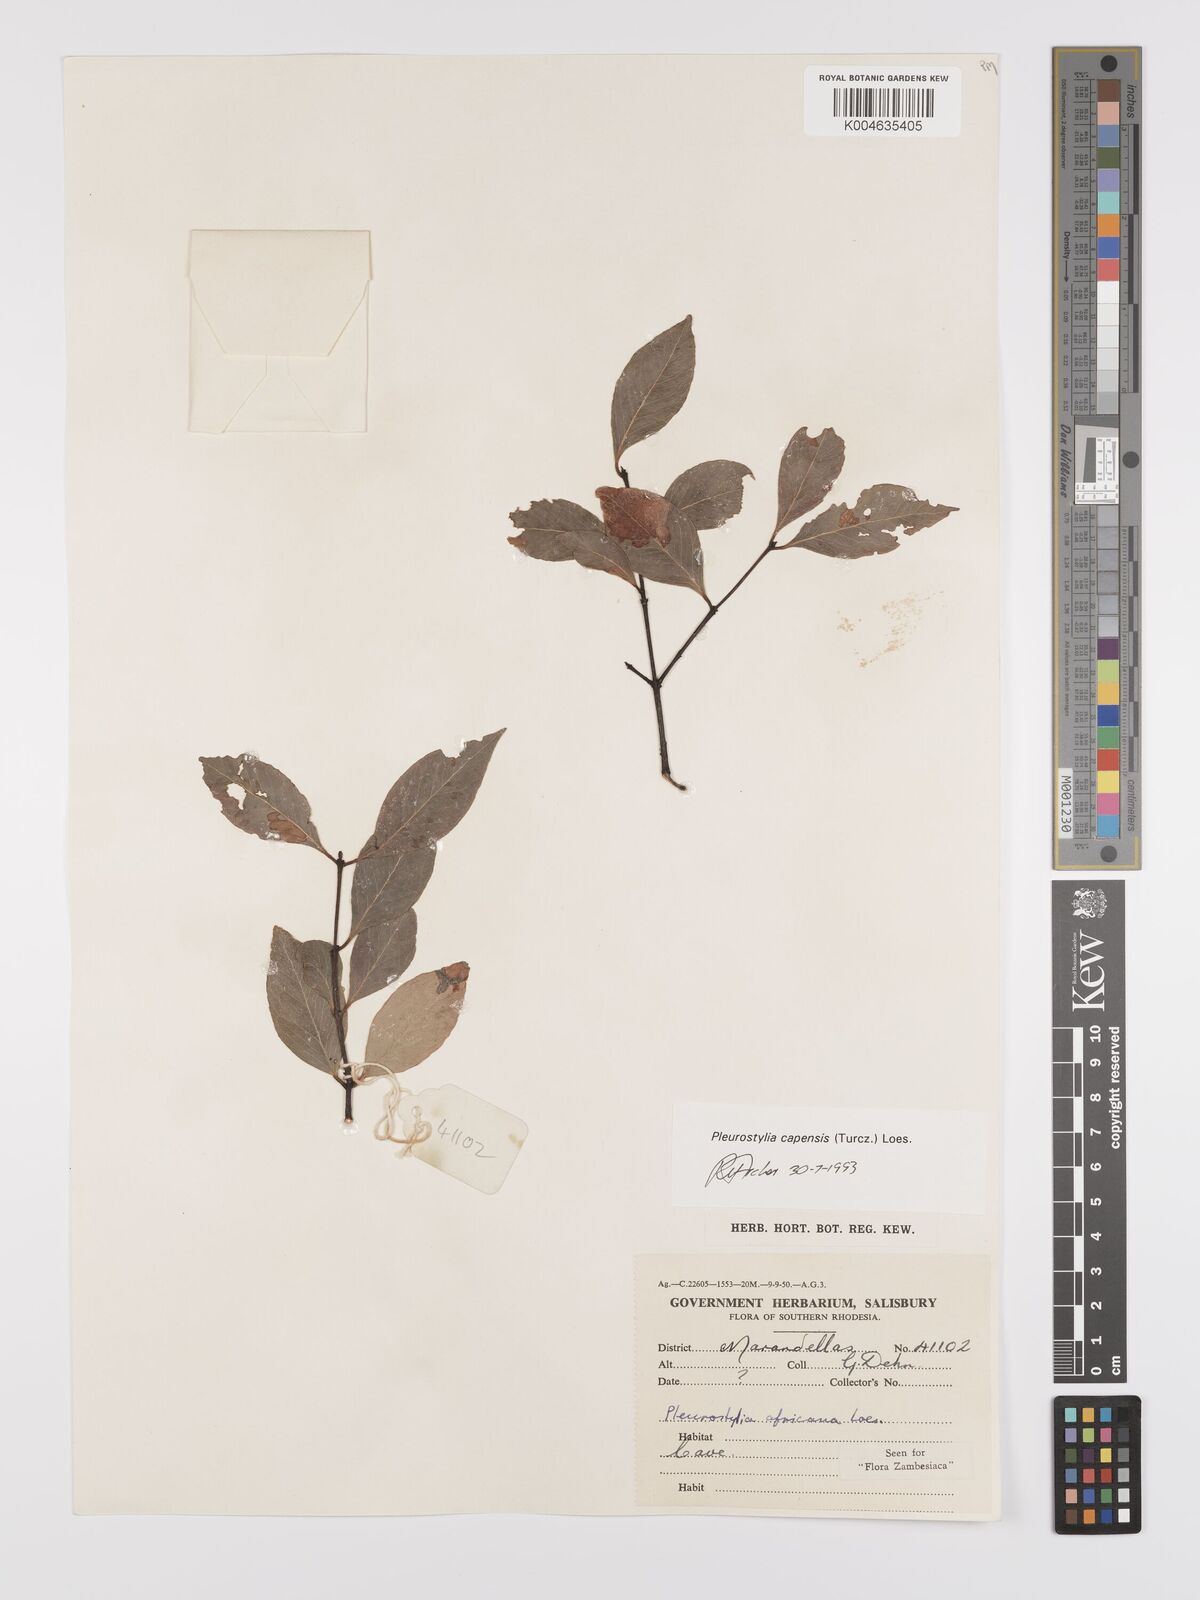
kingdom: Plantae
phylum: Tracheophyta
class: Magnoliopsida
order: Celastrales
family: Celastraceae
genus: Pleurostylia
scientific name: Pleurostylia africana
